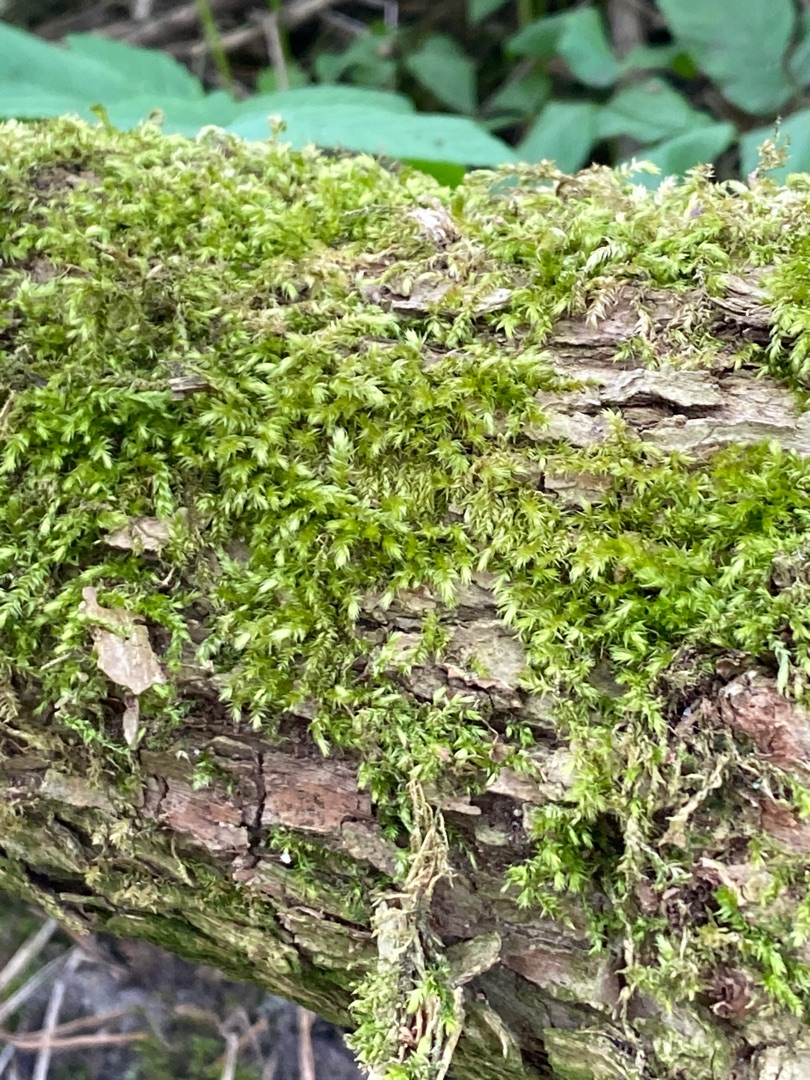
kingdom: Plantae
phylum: Bryophyta
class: Bryopsida
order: Hypnales
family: Brachytheciaceae
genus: Brachythecium
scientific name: Brachythecium rutabulum
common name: Almindelig kortkapsel
